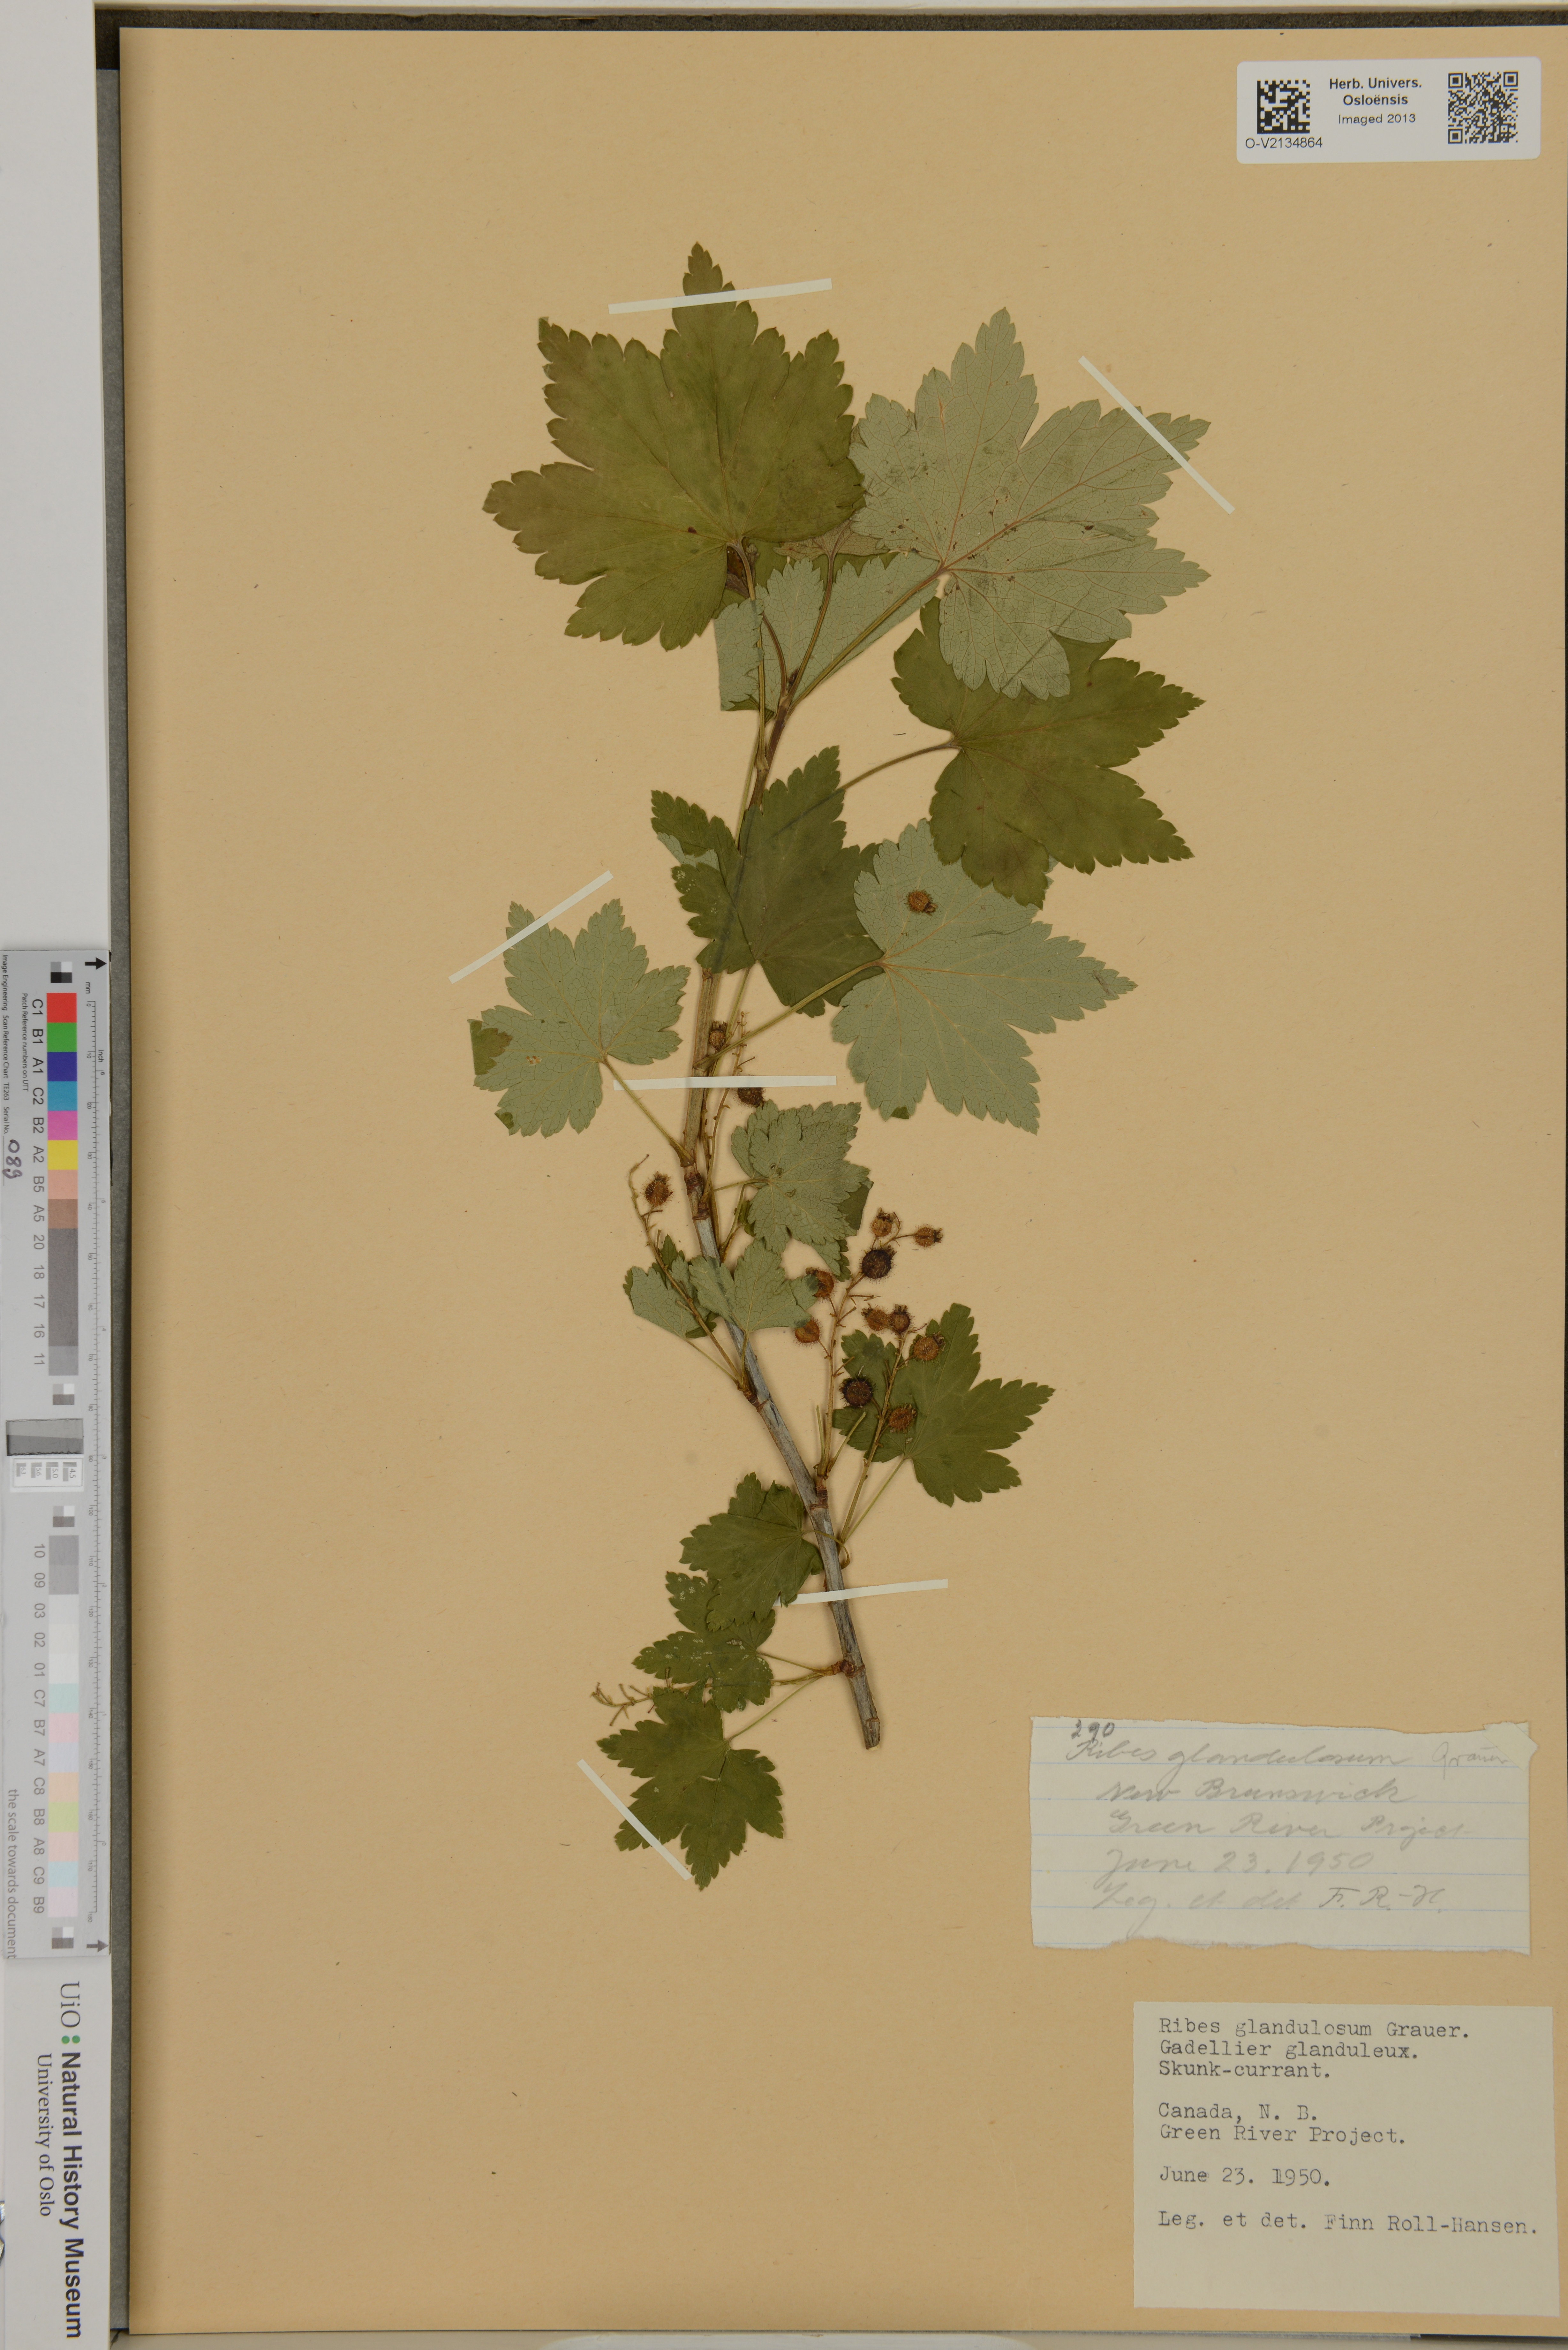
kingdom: Plantae
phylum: Tracheophyta
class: Magnoliopsida
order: Saxifragales
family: Grossulariaceae
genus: Ribes
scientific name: Ribes glandulosum
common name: Skunk currant
